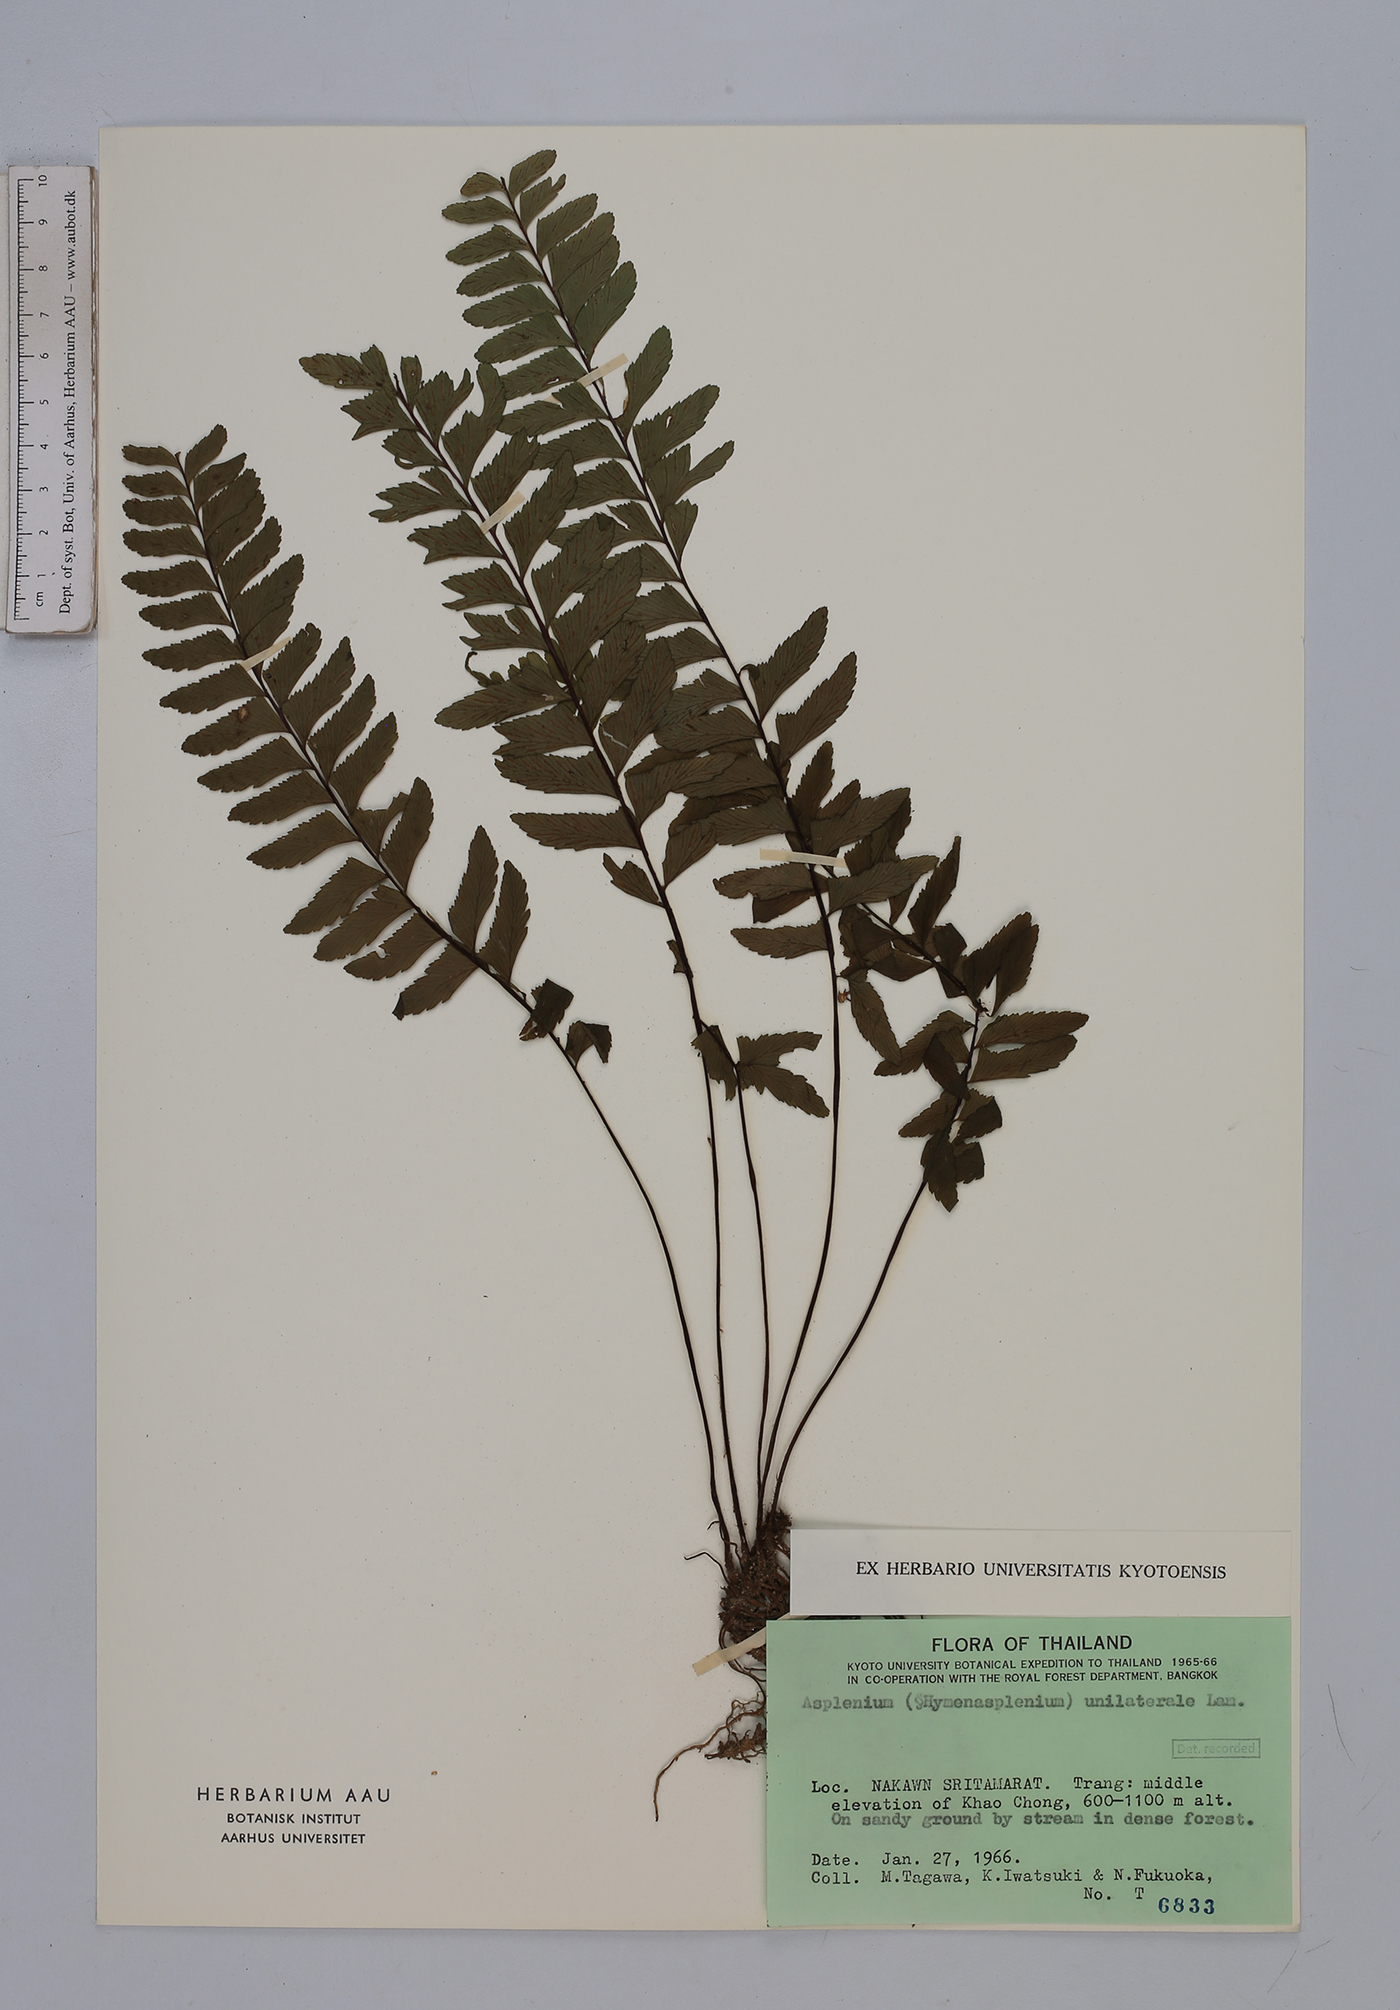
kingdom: Plantae
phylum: Tracheophyta
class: Polypodiopsida
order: Polypodiales
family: Aspleniaceae
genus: Hymenasplenium
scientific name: Hymenasplenium unilaterale
